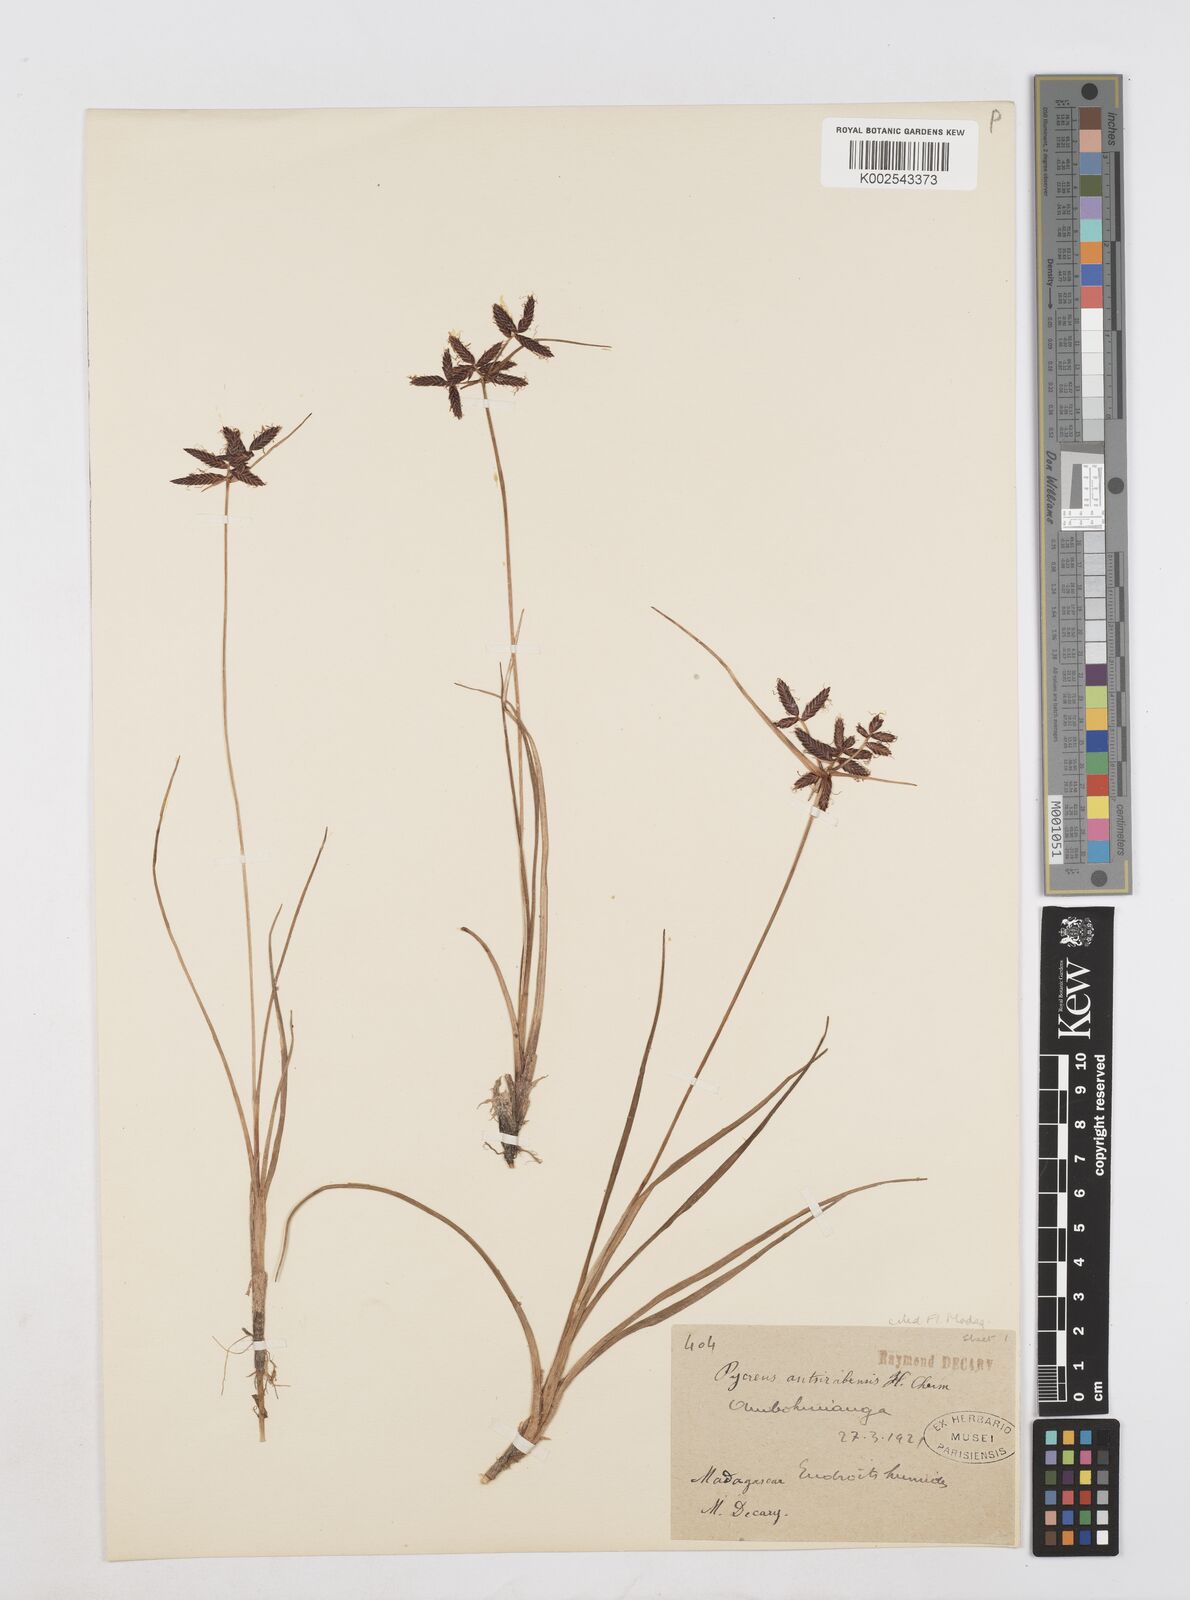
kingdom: Plantae
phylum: Tracheophyta
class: Liliopsida
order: Poales
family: Cyperaceae
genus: Cyperus
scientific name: Cyperus nitidus
